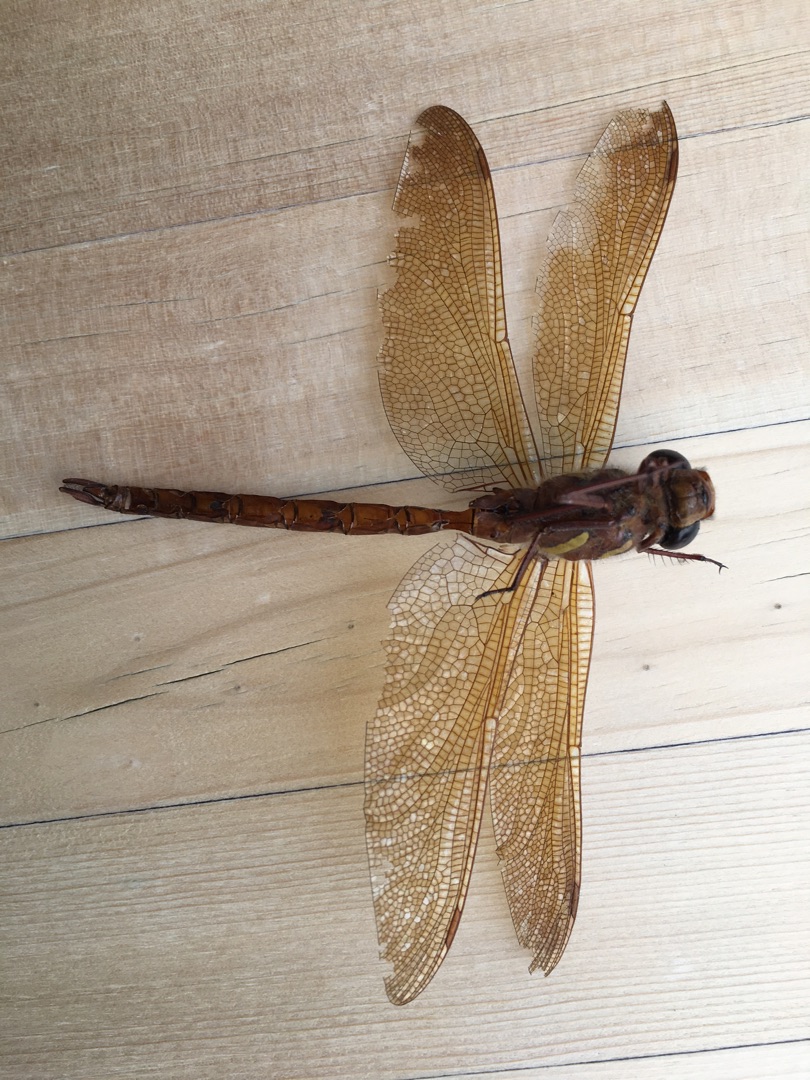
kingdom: Animalia
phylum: Arthropoda
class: Insecta
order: Odonata
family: Aeshnidae
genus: Aeshna
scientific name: Aeshna grandis
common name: Brun mosaikguldsmed
